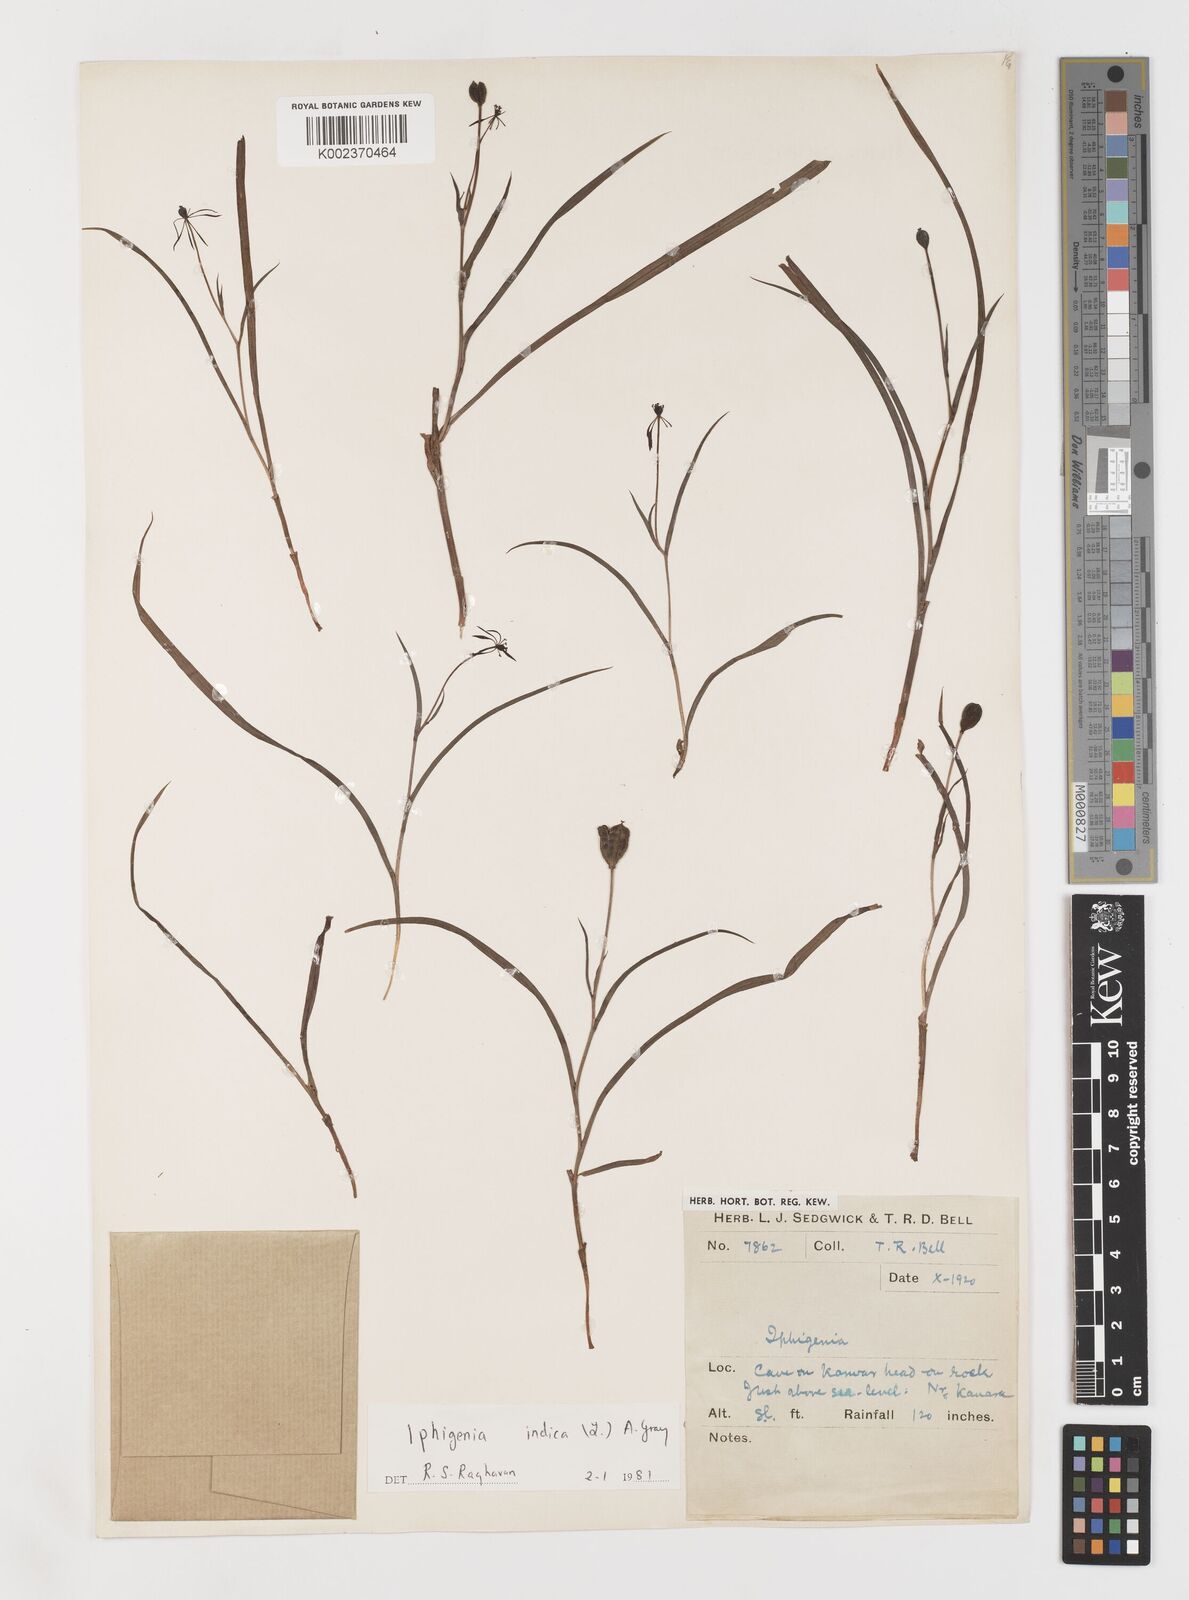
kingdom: Plantae
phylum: Tracheophyta
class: Liliopsida
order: Liliales
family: Colchicaceae
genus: Iphigenia
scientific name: Iphigenia indica
